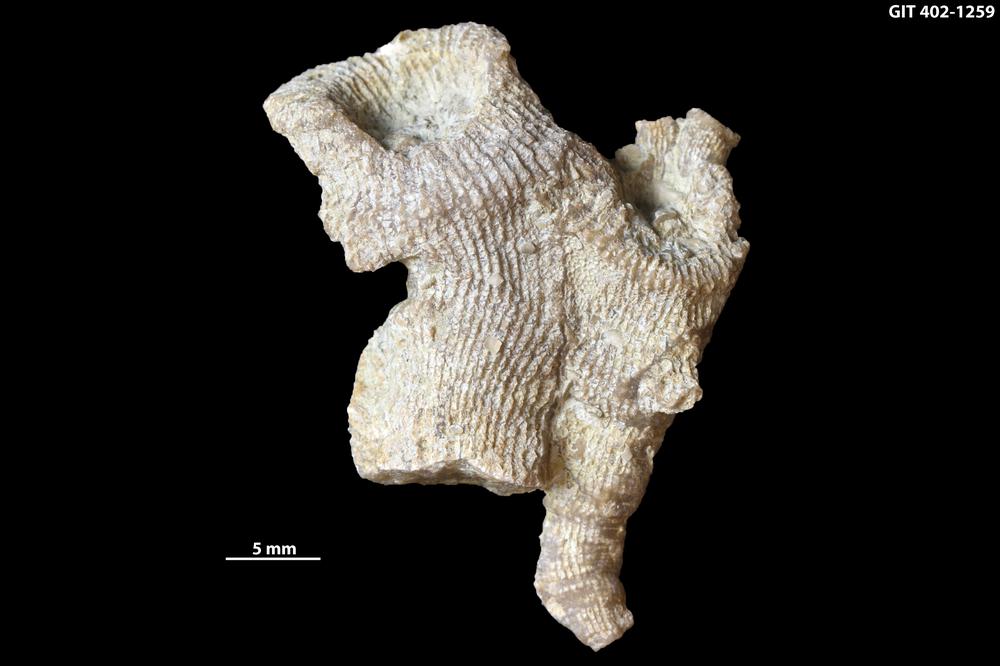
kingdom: Animalia
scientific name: Animalia
